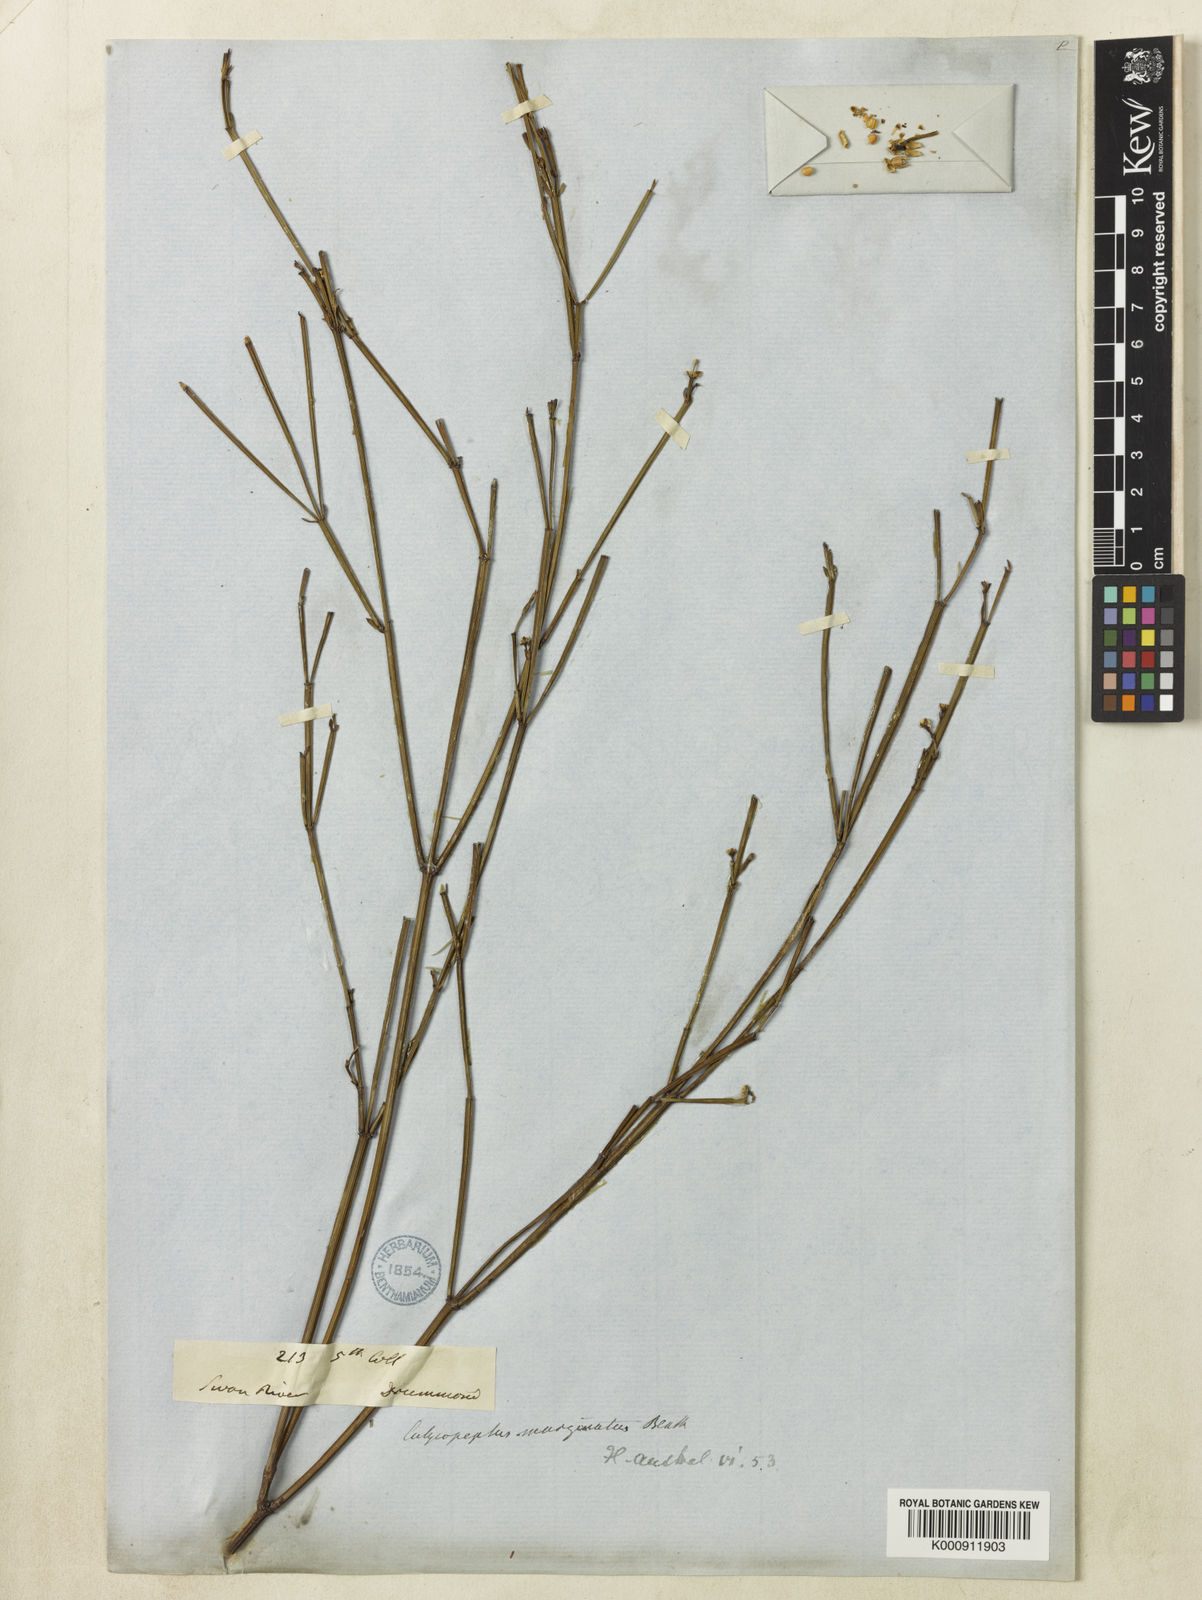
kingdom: Plantae
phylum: Tracheophyta
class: Magnoliopsida
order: Malpighiales
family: Euphorbiaceae
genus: Calycopeplus
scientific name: Calycopeplus marginatus
